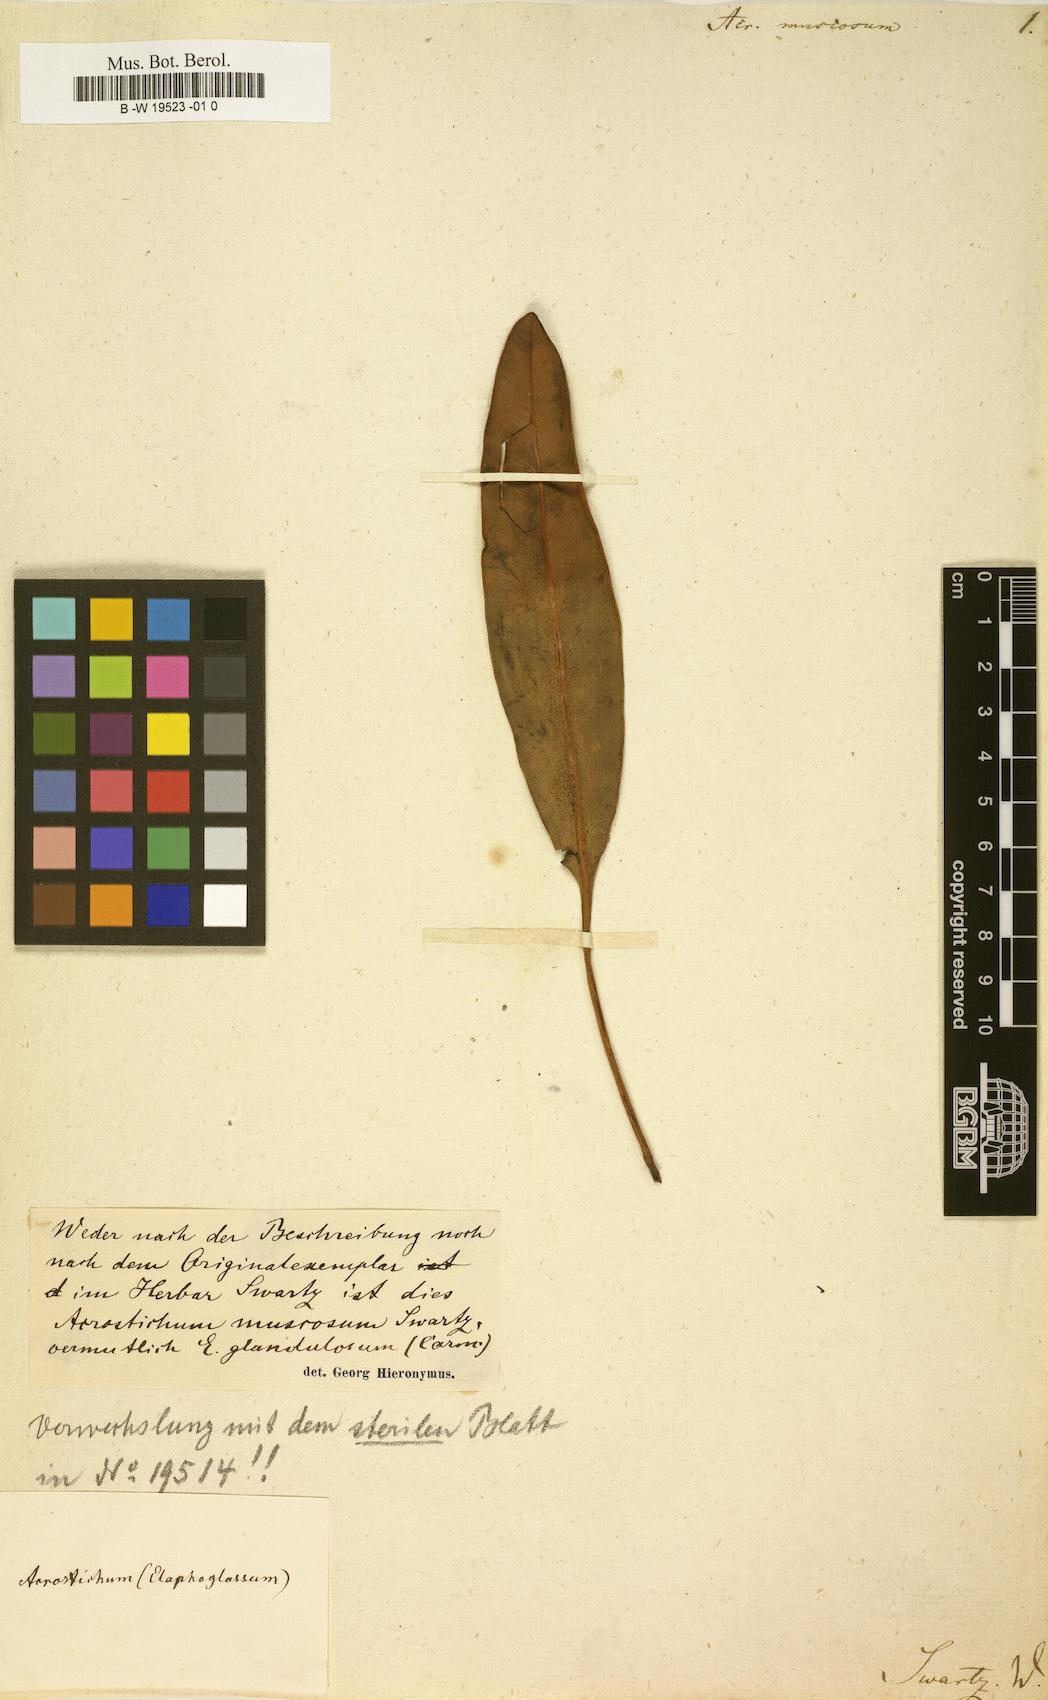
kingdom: Plantae
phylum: Tracheophyta
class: Polypodiopsida
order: Polypodiales
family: Dryopteridaceae
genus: Elaphoglossum
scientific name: Elaphoglossum muscosum
